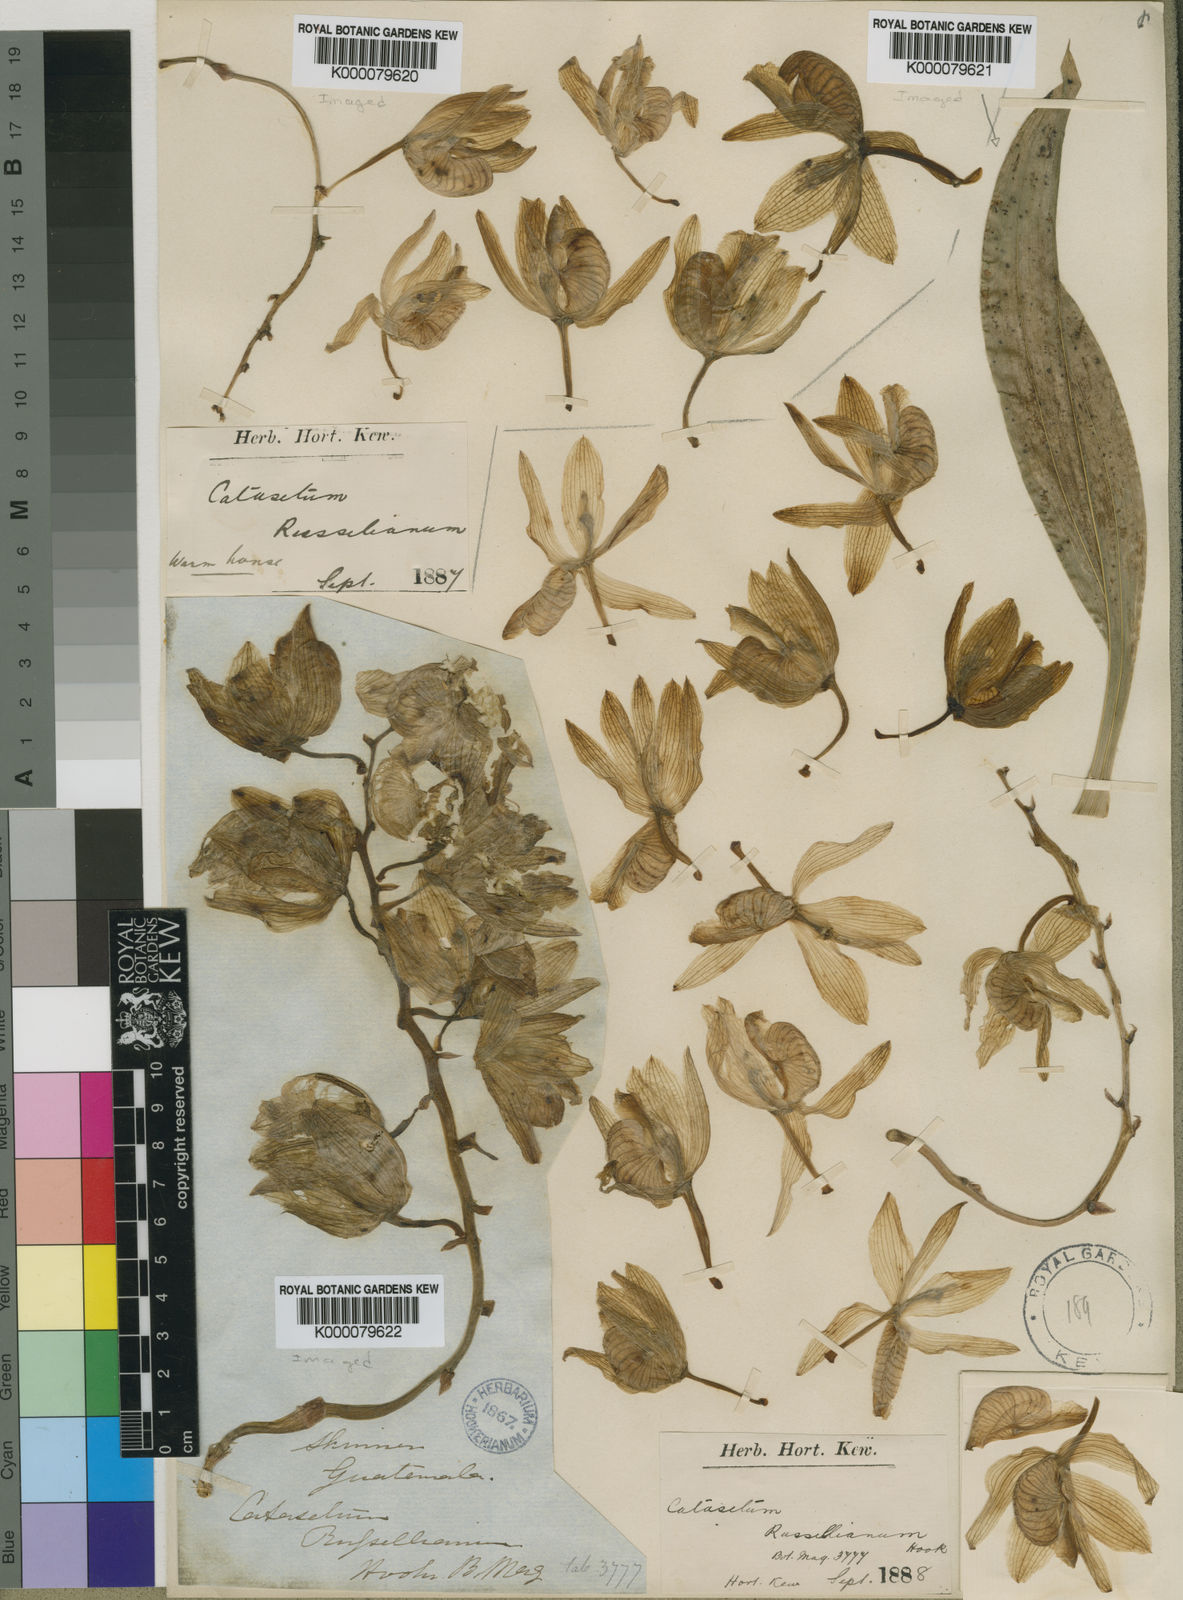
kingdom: Plantae
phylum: Tracheophyta
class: Liliopsida
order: Asparagales
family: Orchidaceae
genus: Clowesia
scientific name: Clowesia russelliana
